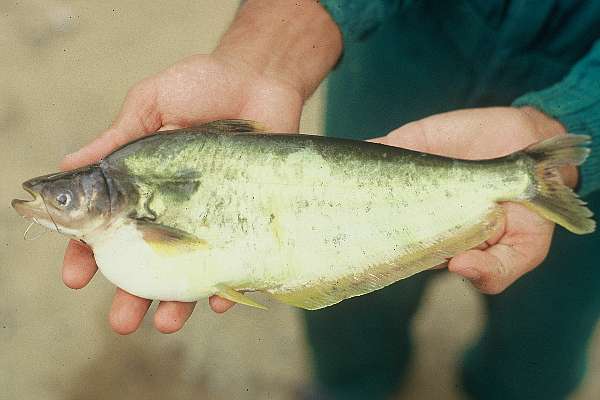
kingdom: Animalia
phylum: Chordata
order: Siluriformes
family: Schilbeidae
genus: Schilbe
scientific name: Schilbe intermedius
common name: Silver catfish
